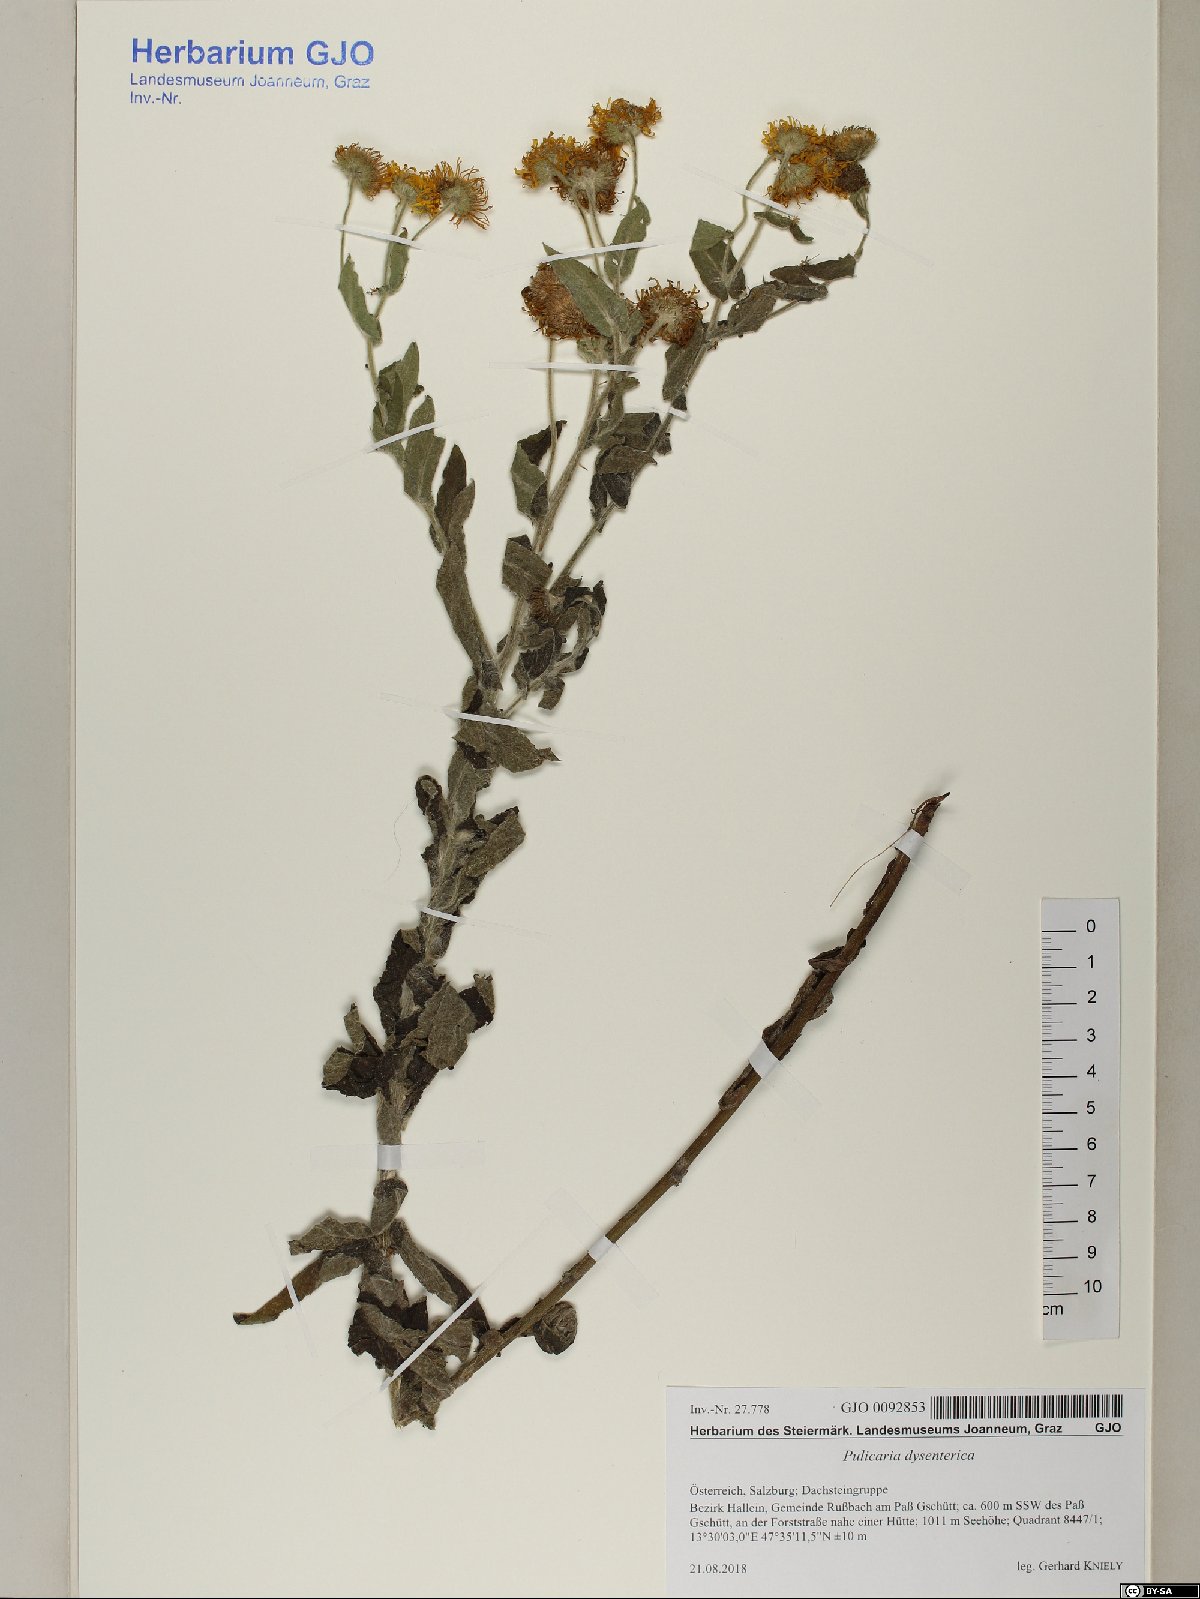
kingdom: Plantae
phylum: Tracheophyta
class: Magnoliopsida
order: Asterales
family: Asteraceae
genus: Pulicaria
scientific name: Pulicaria dysenterica
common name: Common fleabane
